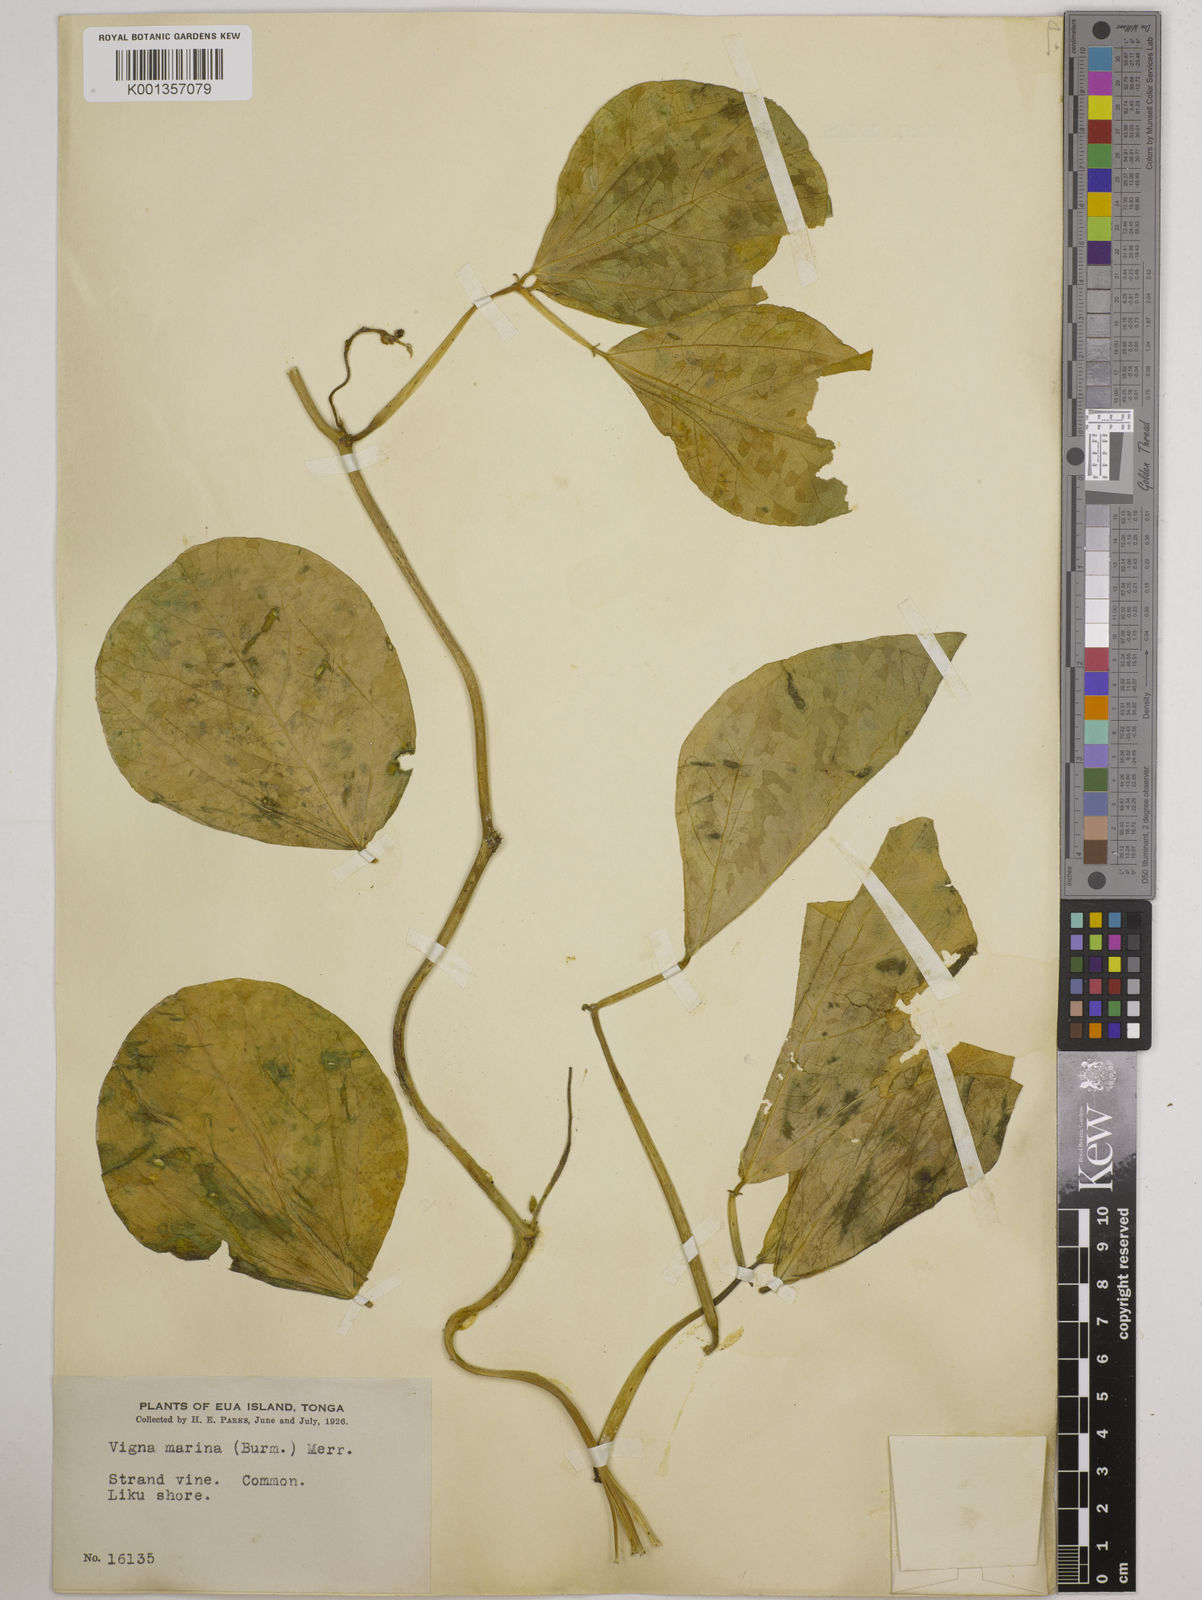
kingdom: Plantae
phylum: Tracheophyta
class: Magnoliopsida
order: Fabales
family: Fabaceae
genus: Vigna
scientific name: Vigna marina
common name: Dune-bean
